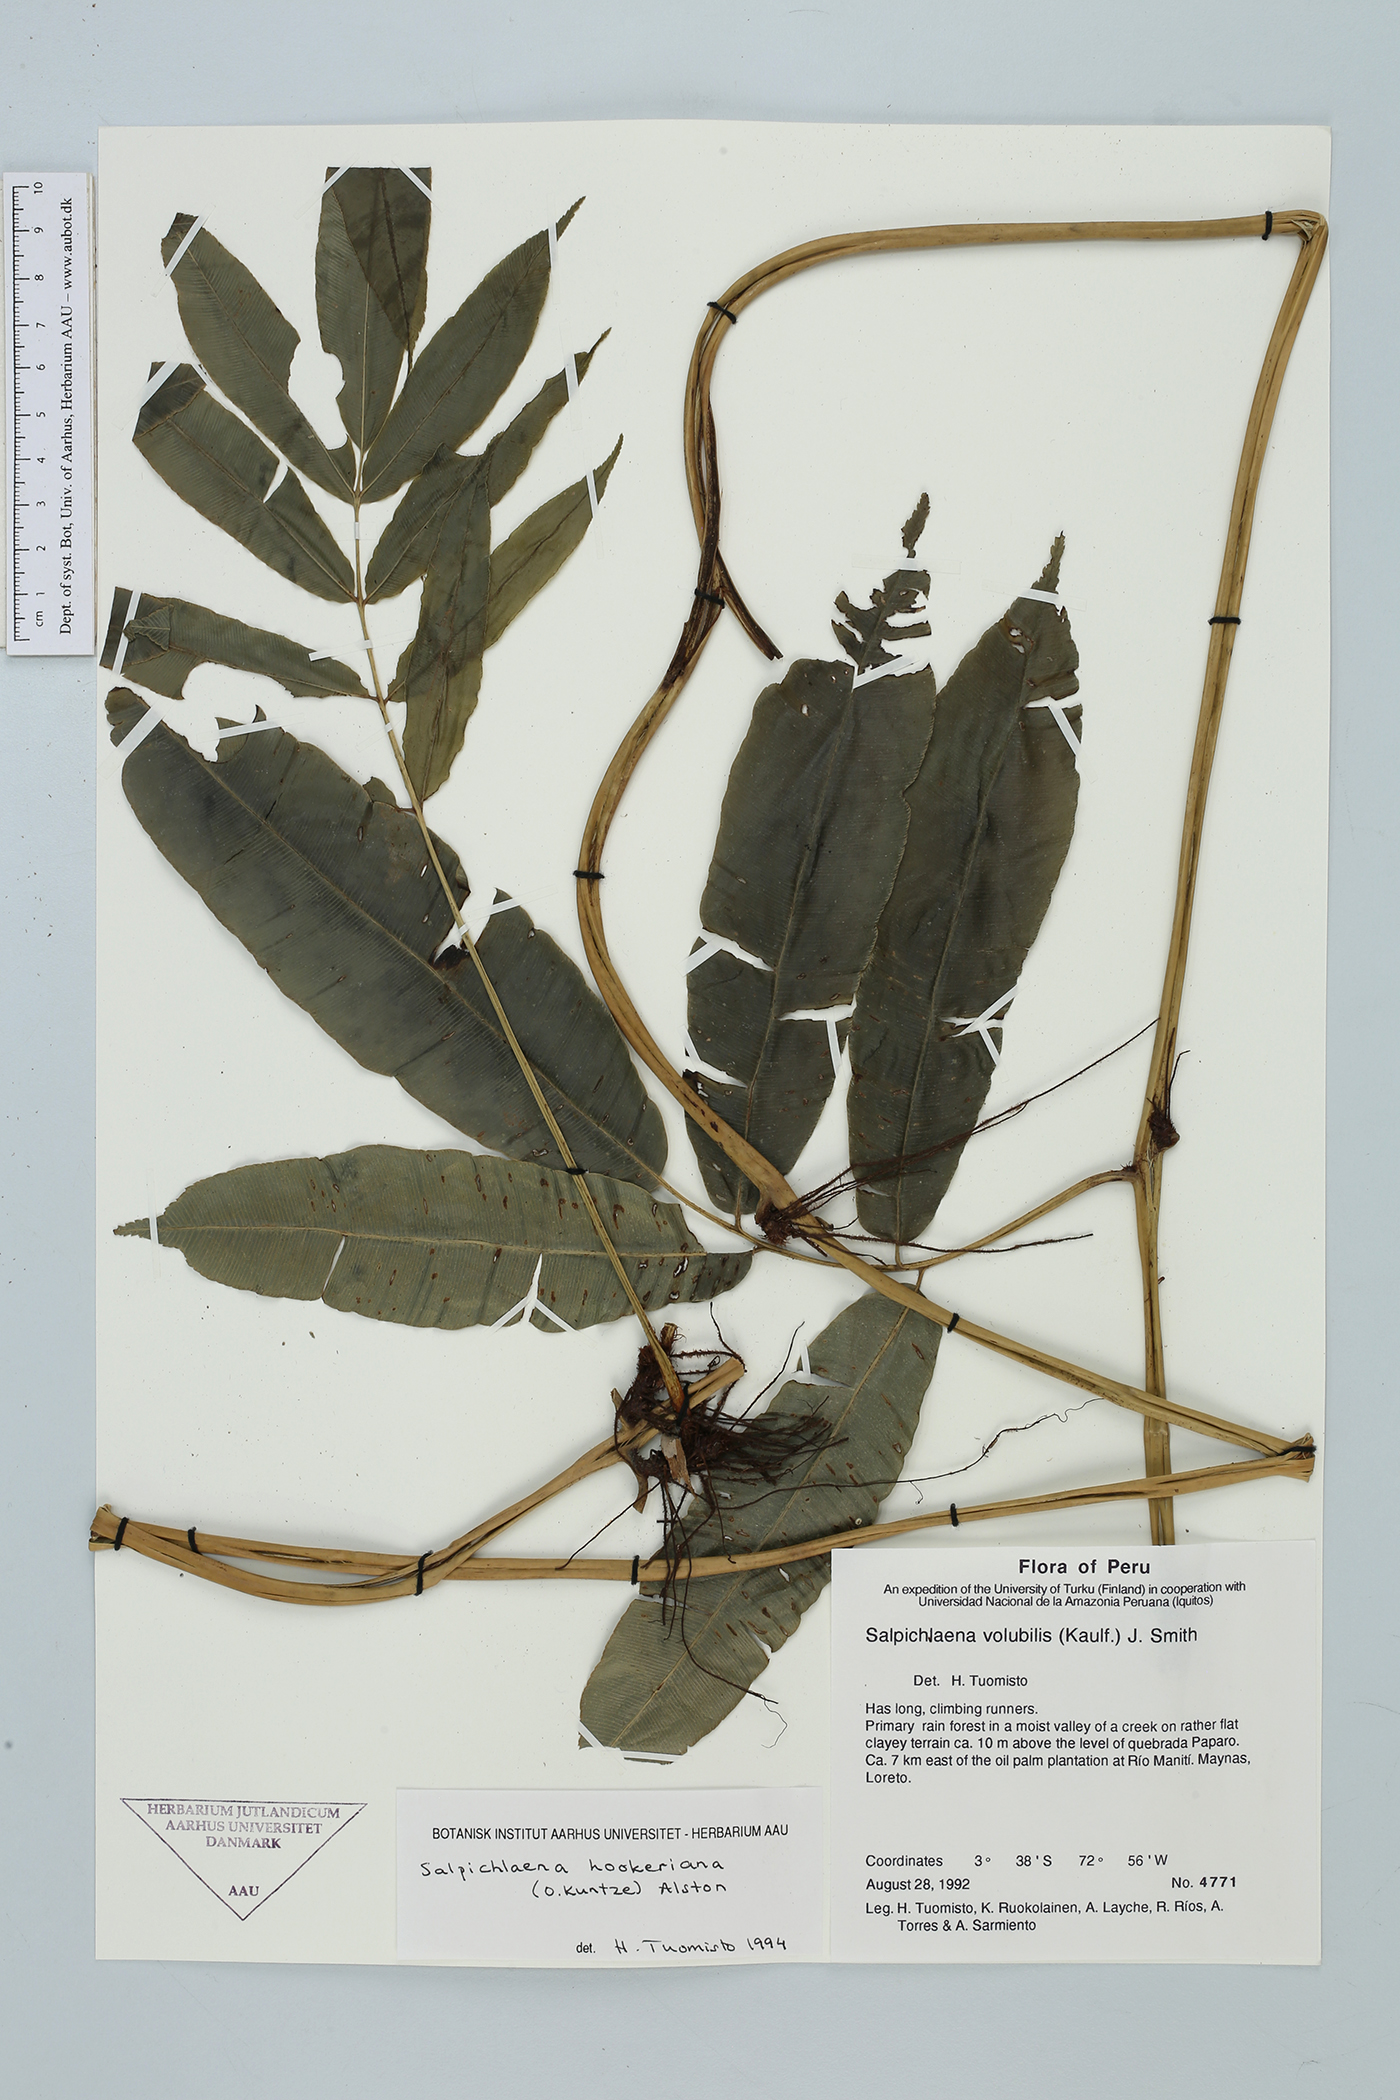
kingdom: Plantae
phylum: Tracheophyta
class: Polypodiopsida
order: Polypodiales
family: Blechnaceae
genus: Salpichlaena
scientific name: Salpichlaena hookeriana
